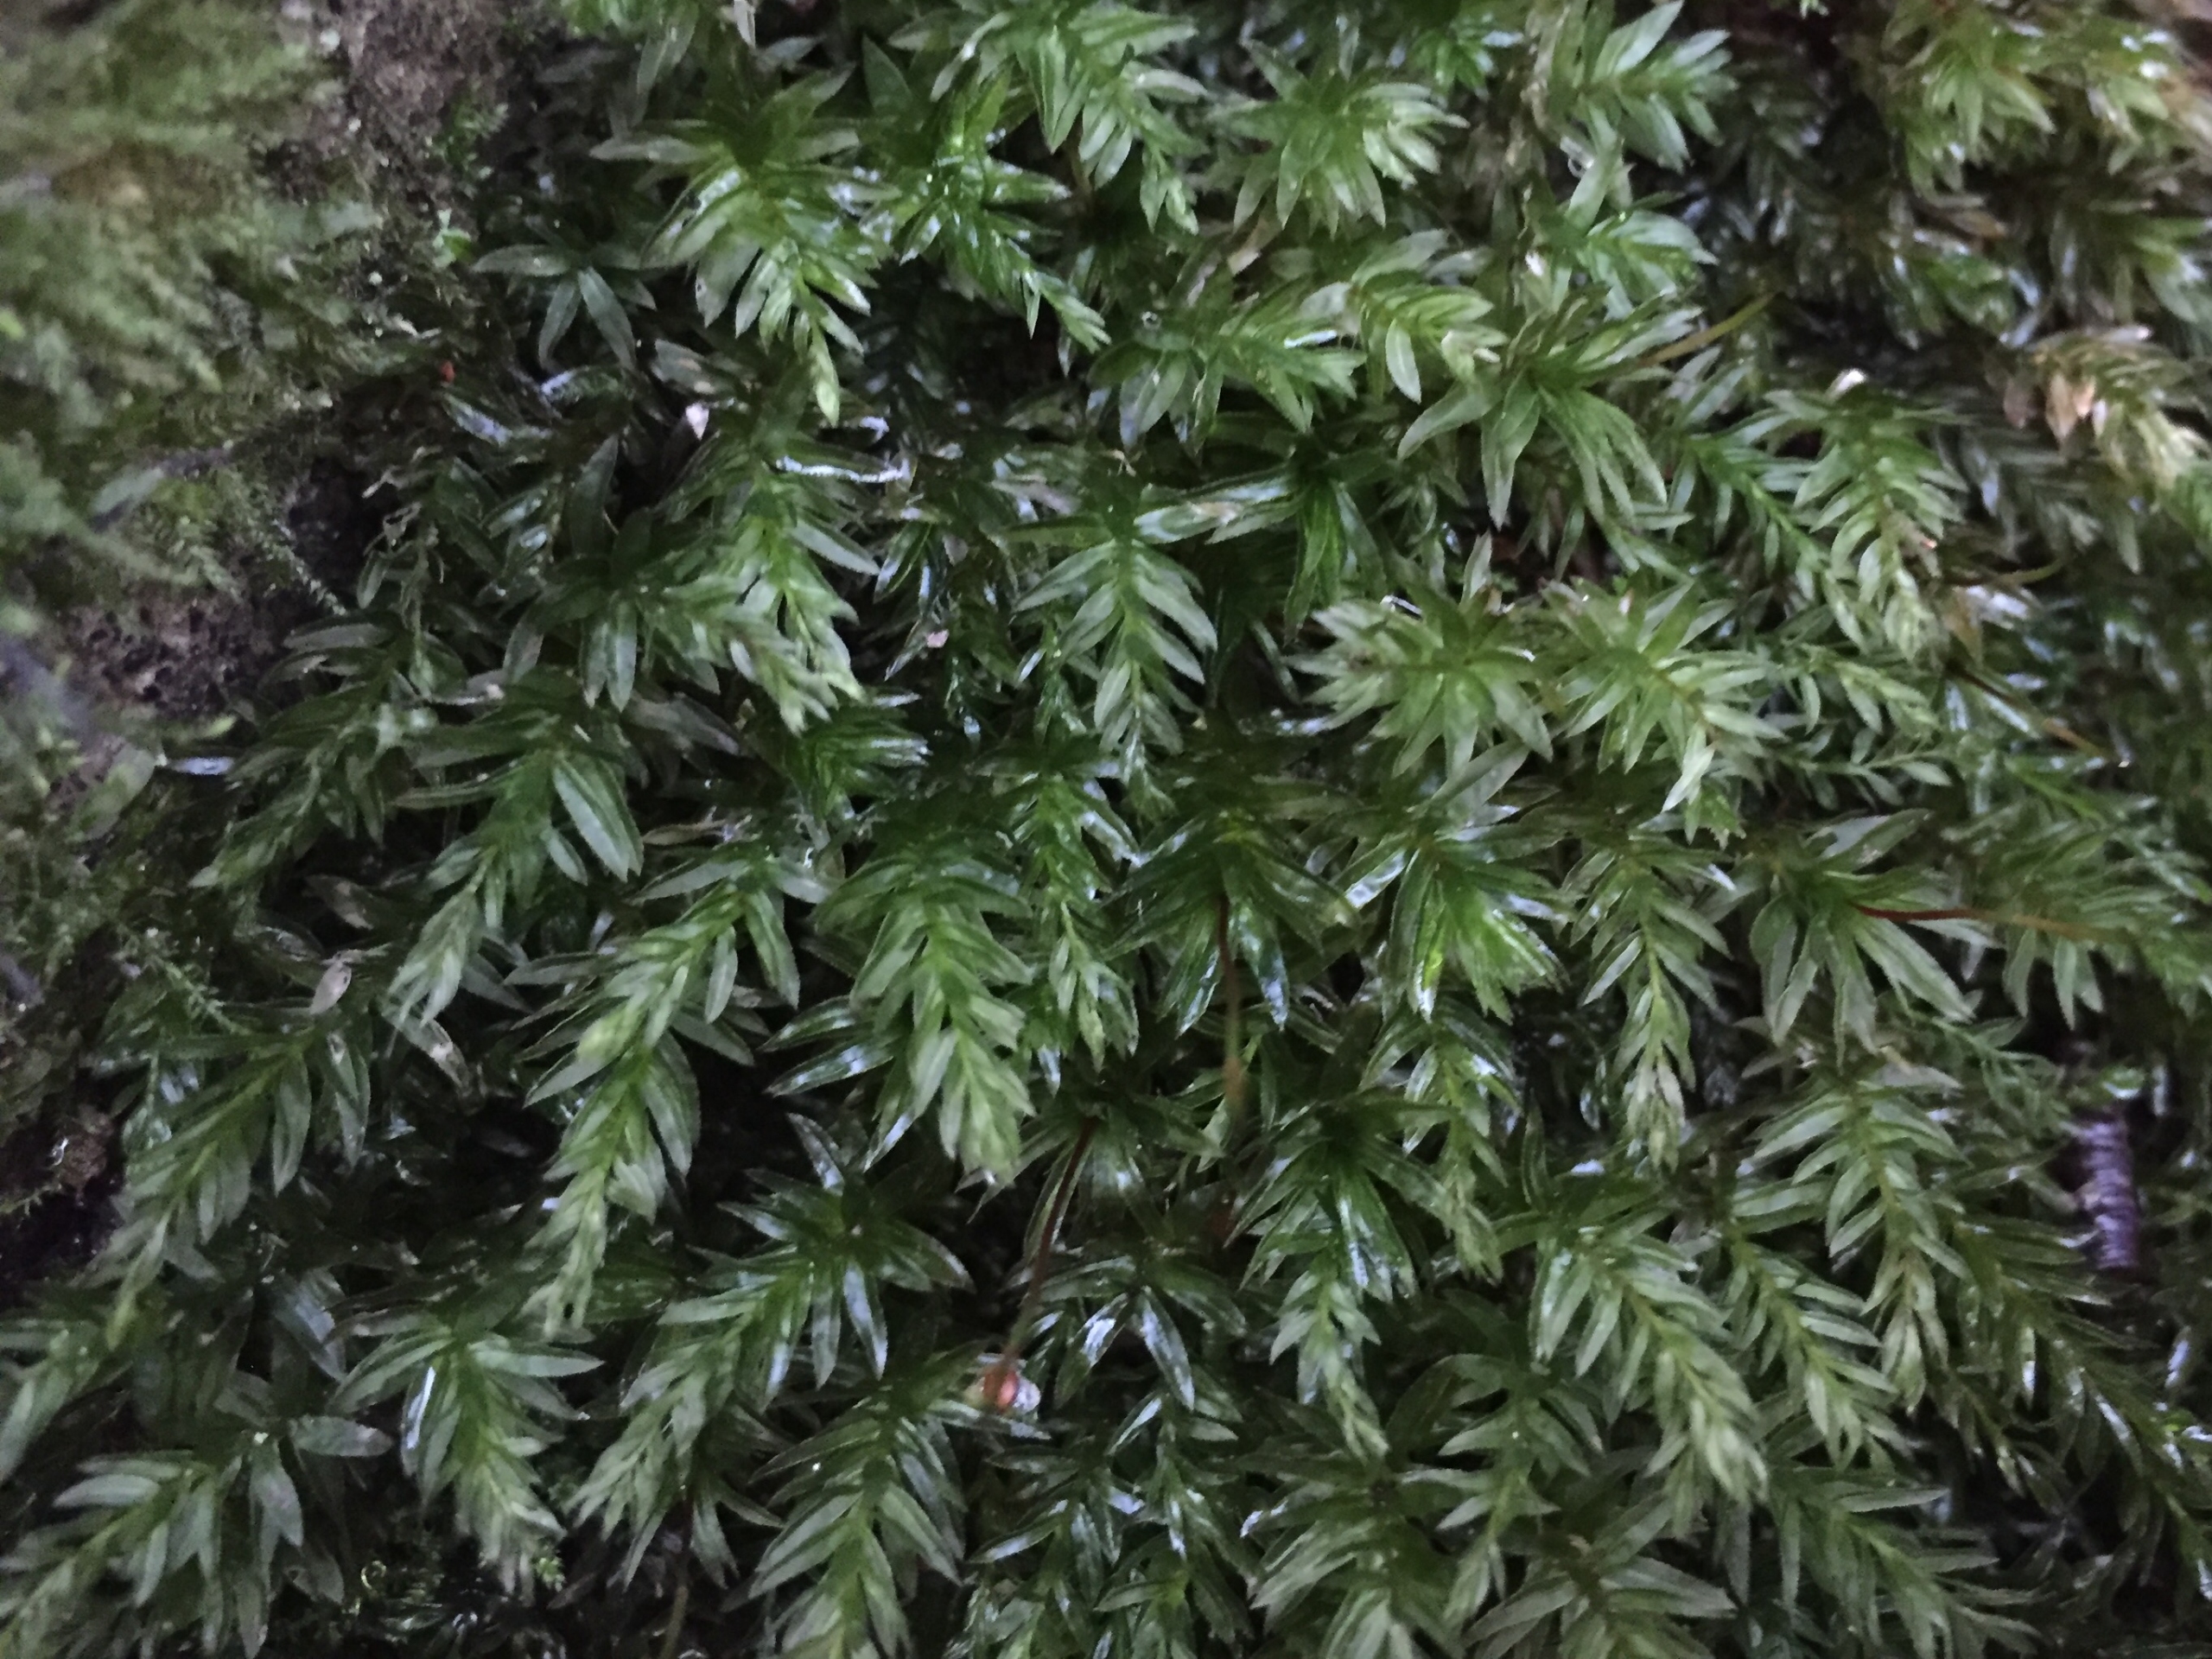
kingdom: Plantae
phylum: Bryophyta
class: Bryopsida
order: Bryales
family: Mniaceae
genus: Mnium
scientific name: Mnium hornum
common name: Brunfiltet stjernemos
